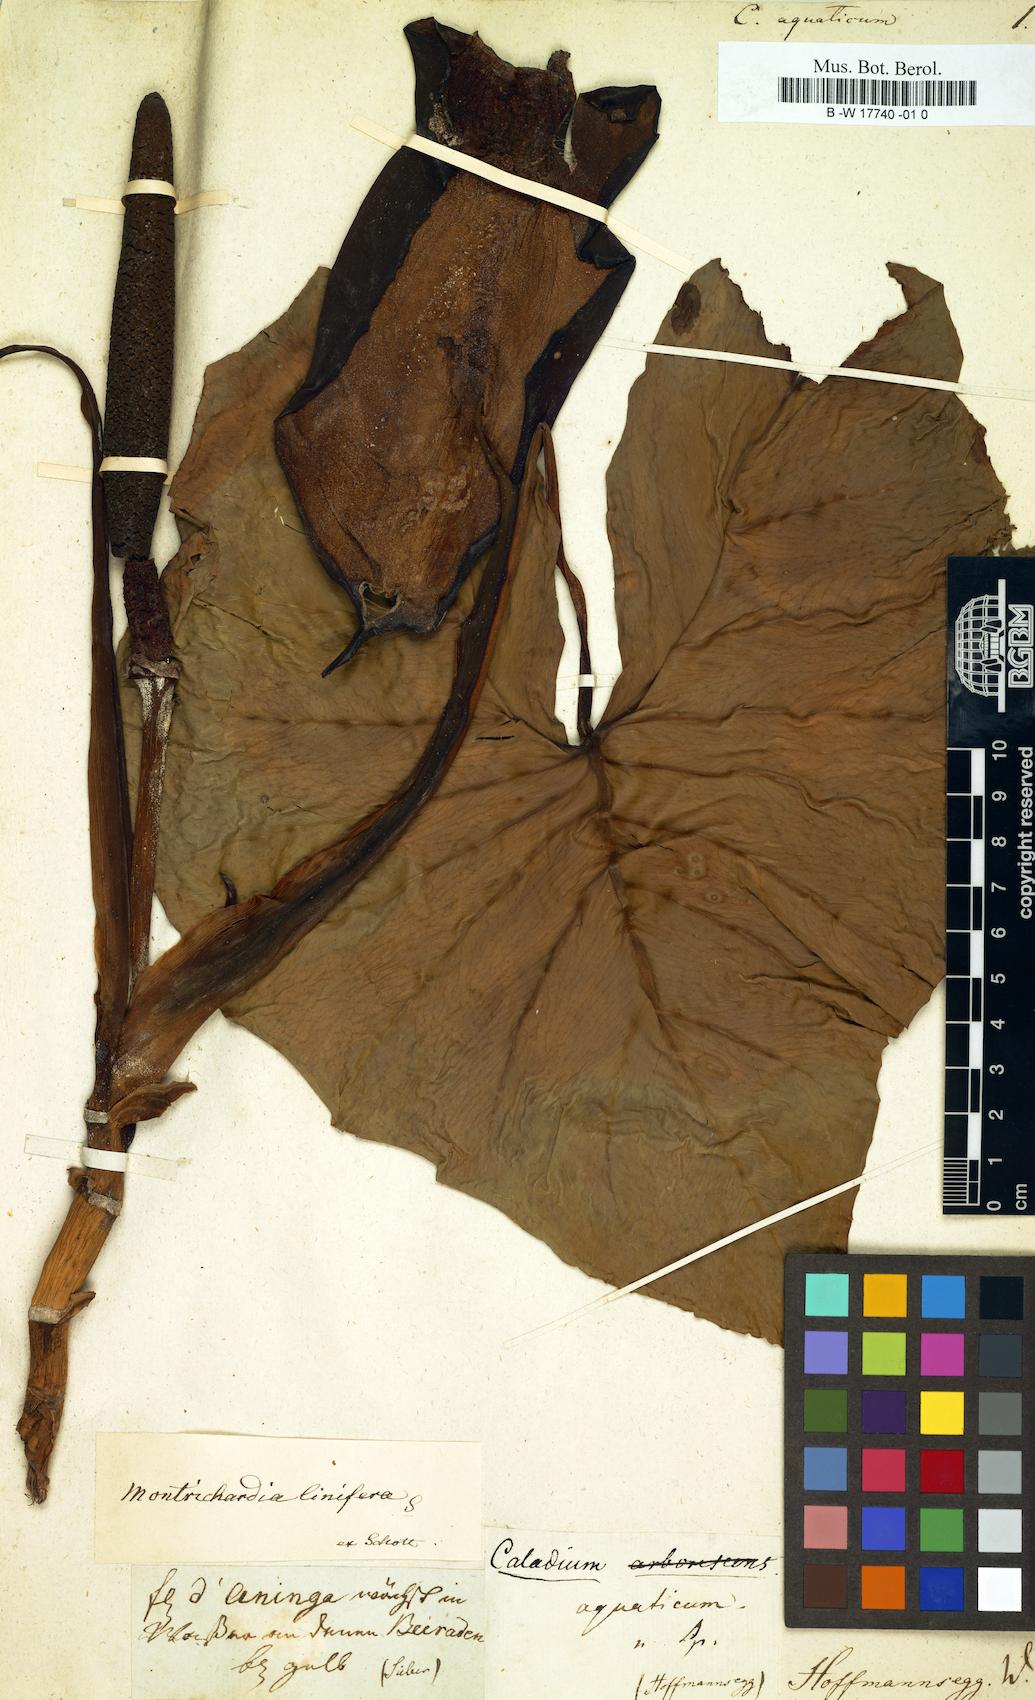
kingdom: Plantae
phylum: Tracheophyta
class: Liliopsida
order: Alismatales
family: Araceae
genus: Caladium
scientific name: Caladium
